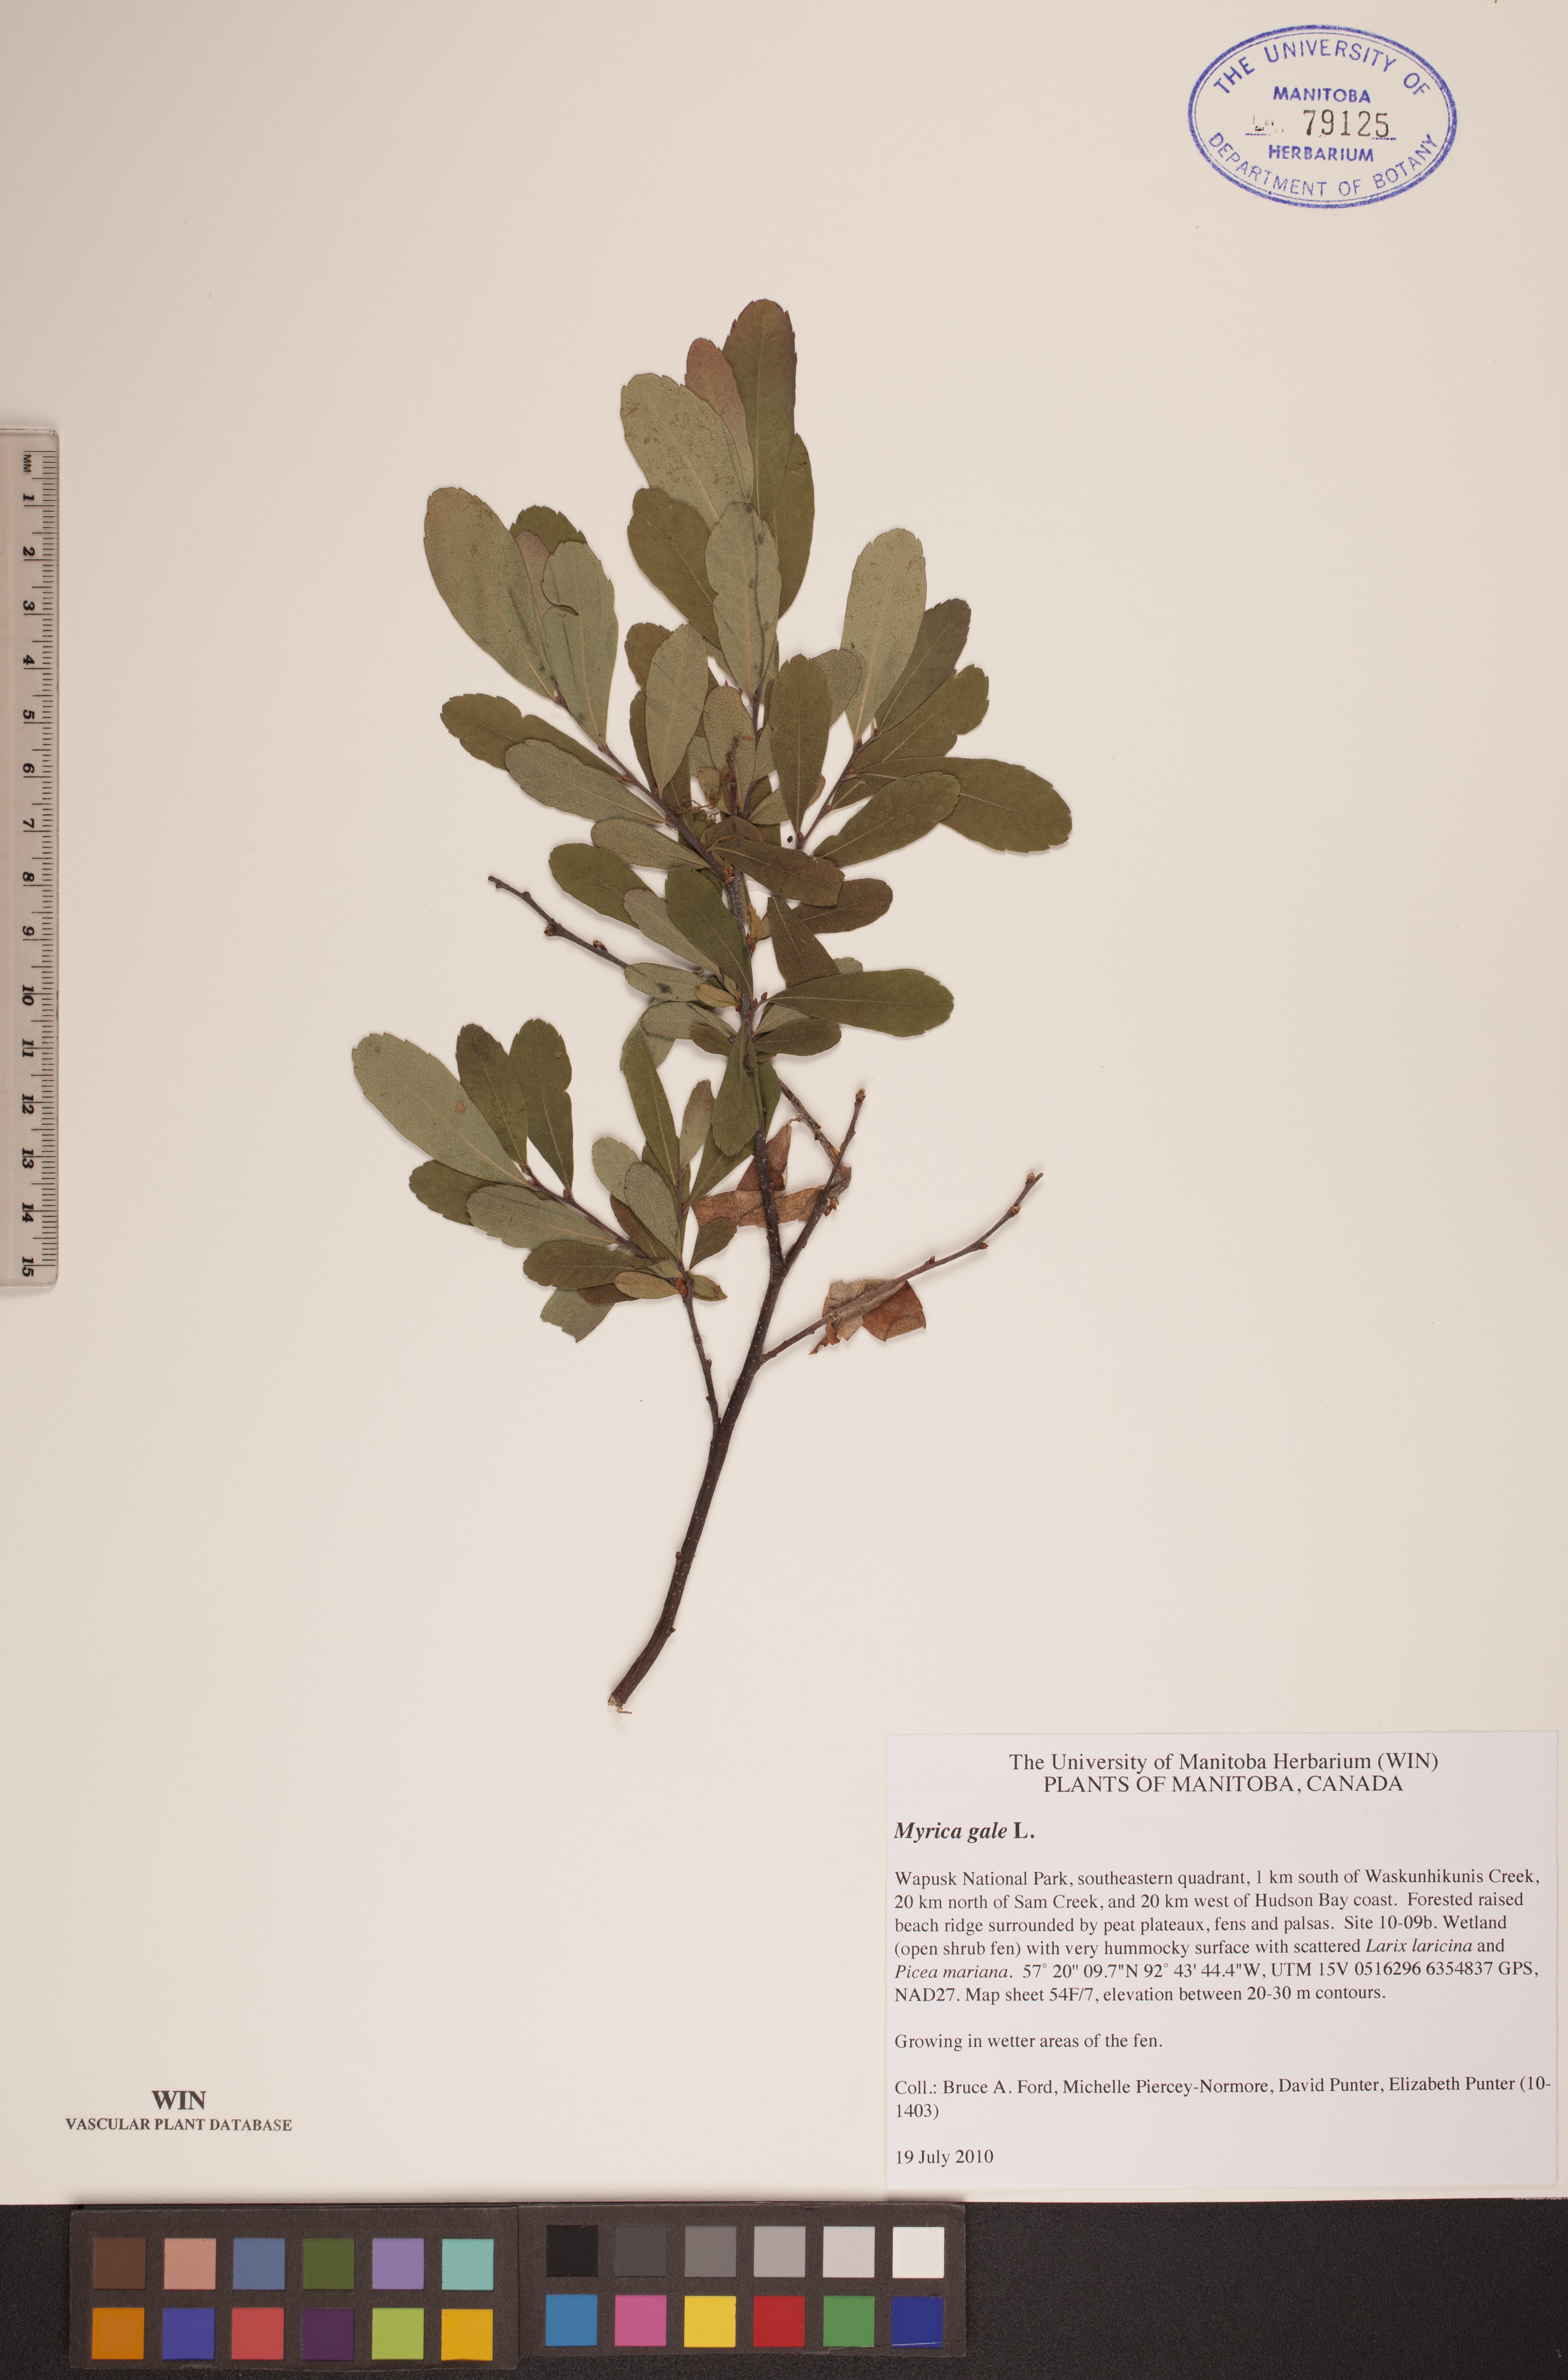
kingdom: Plantae
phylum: Tracheophyta
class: Magnoliopsida
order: Fagales
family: Myricaceae
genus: Myrica
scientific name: Myrica gale
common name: Sweet gale
